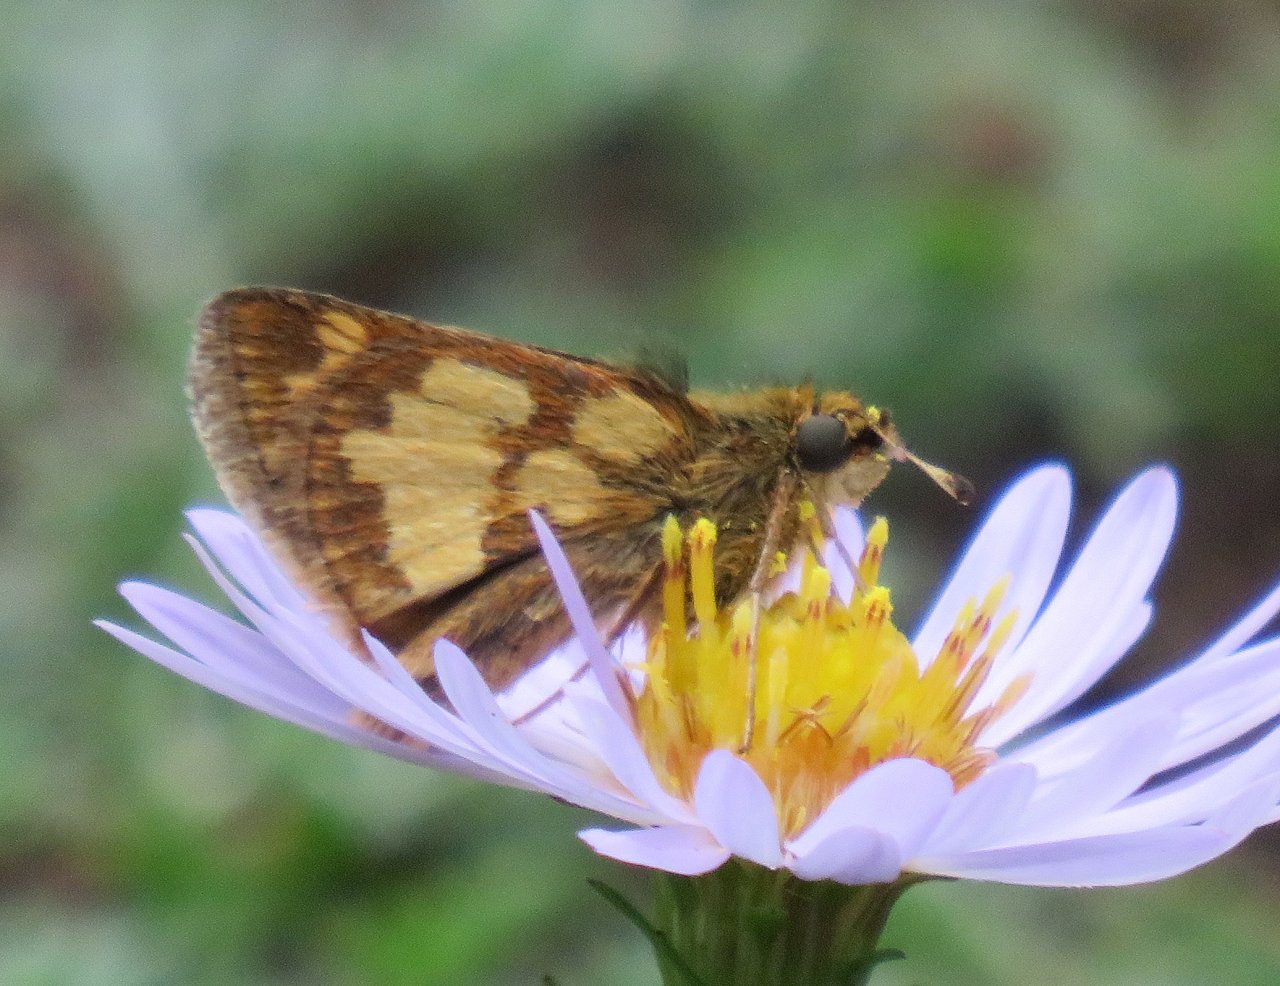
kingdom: Animalia
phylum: Arthropoda
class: Insecta
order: Lepidoptera
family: Hesperiidae
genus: Polites
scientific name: Polites coras
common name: Peck's Skipper
